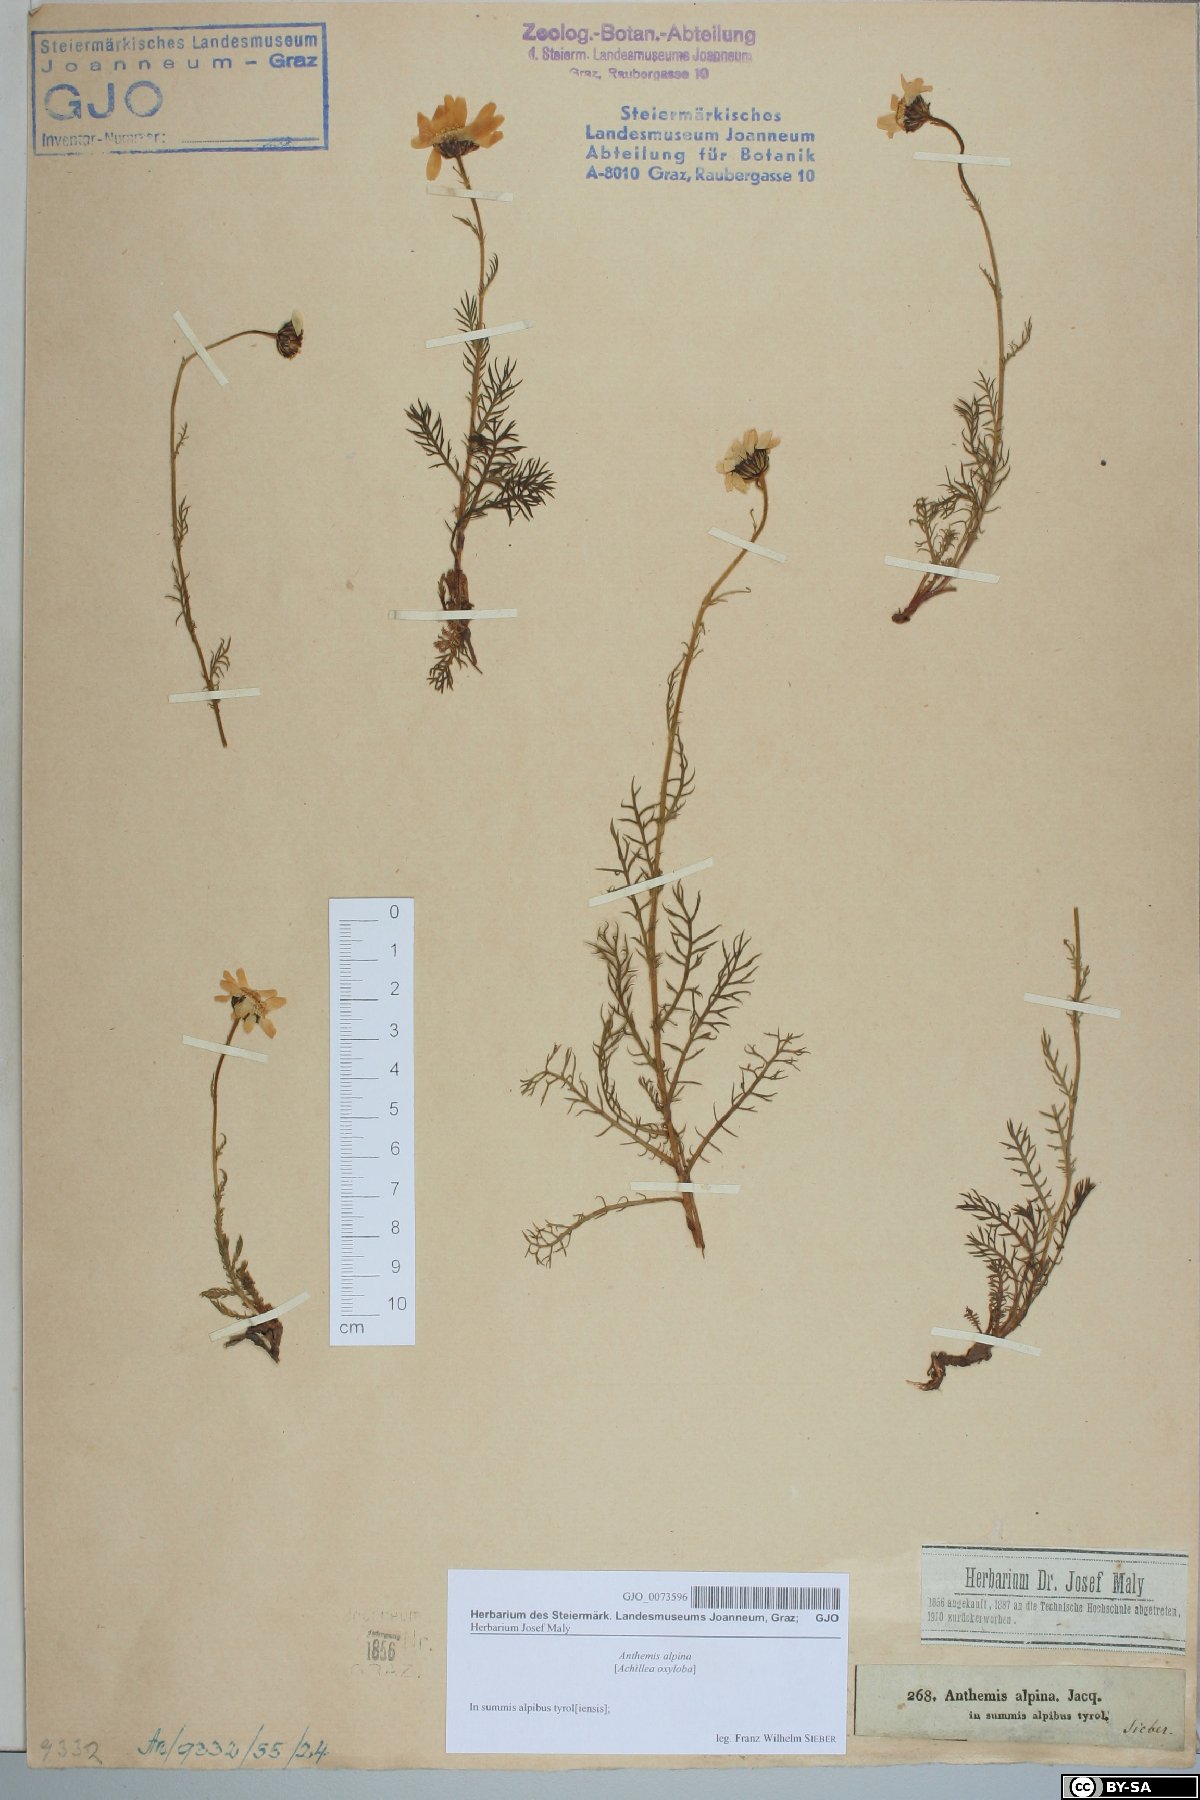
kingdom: Plantae
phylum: Tracheophyta
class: Magnoliopsida
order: Asterales
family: Asteraceae
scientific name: Asteraceae
